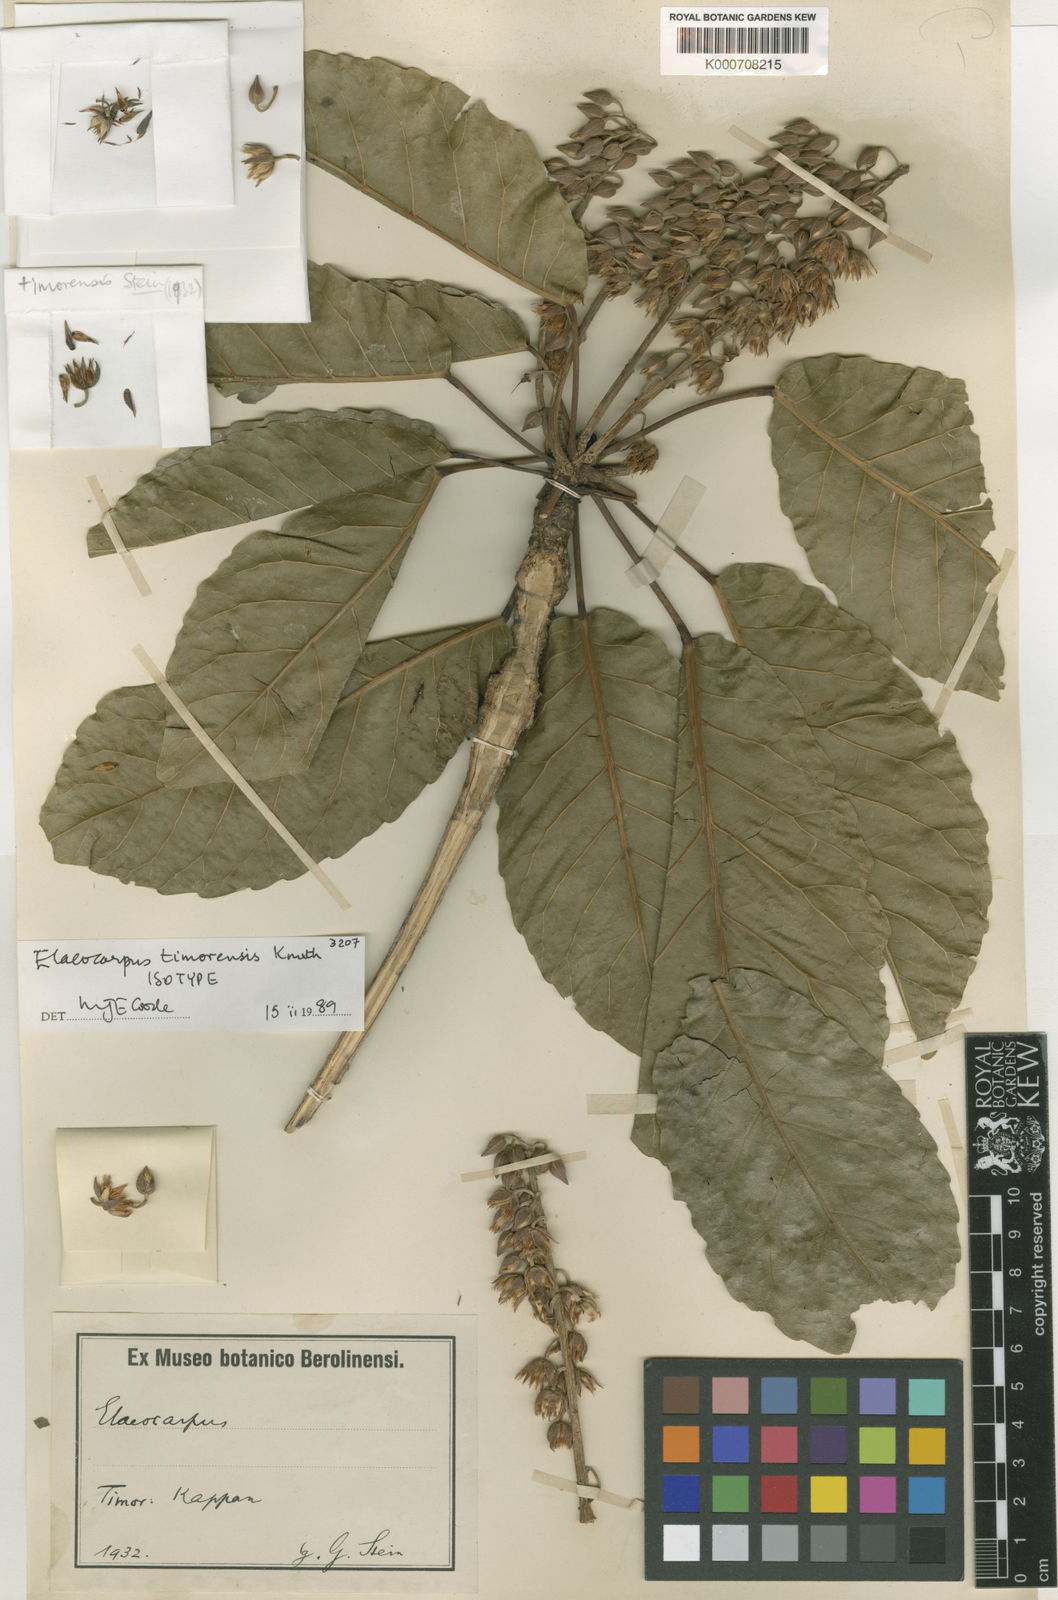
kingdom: Plantae
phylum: Tracheophyta
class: Magnoliopsida
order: Oxalidales
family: Elaeocarpaceae
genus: Elaeocarpus
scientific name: Elaeocarpus timorensis
